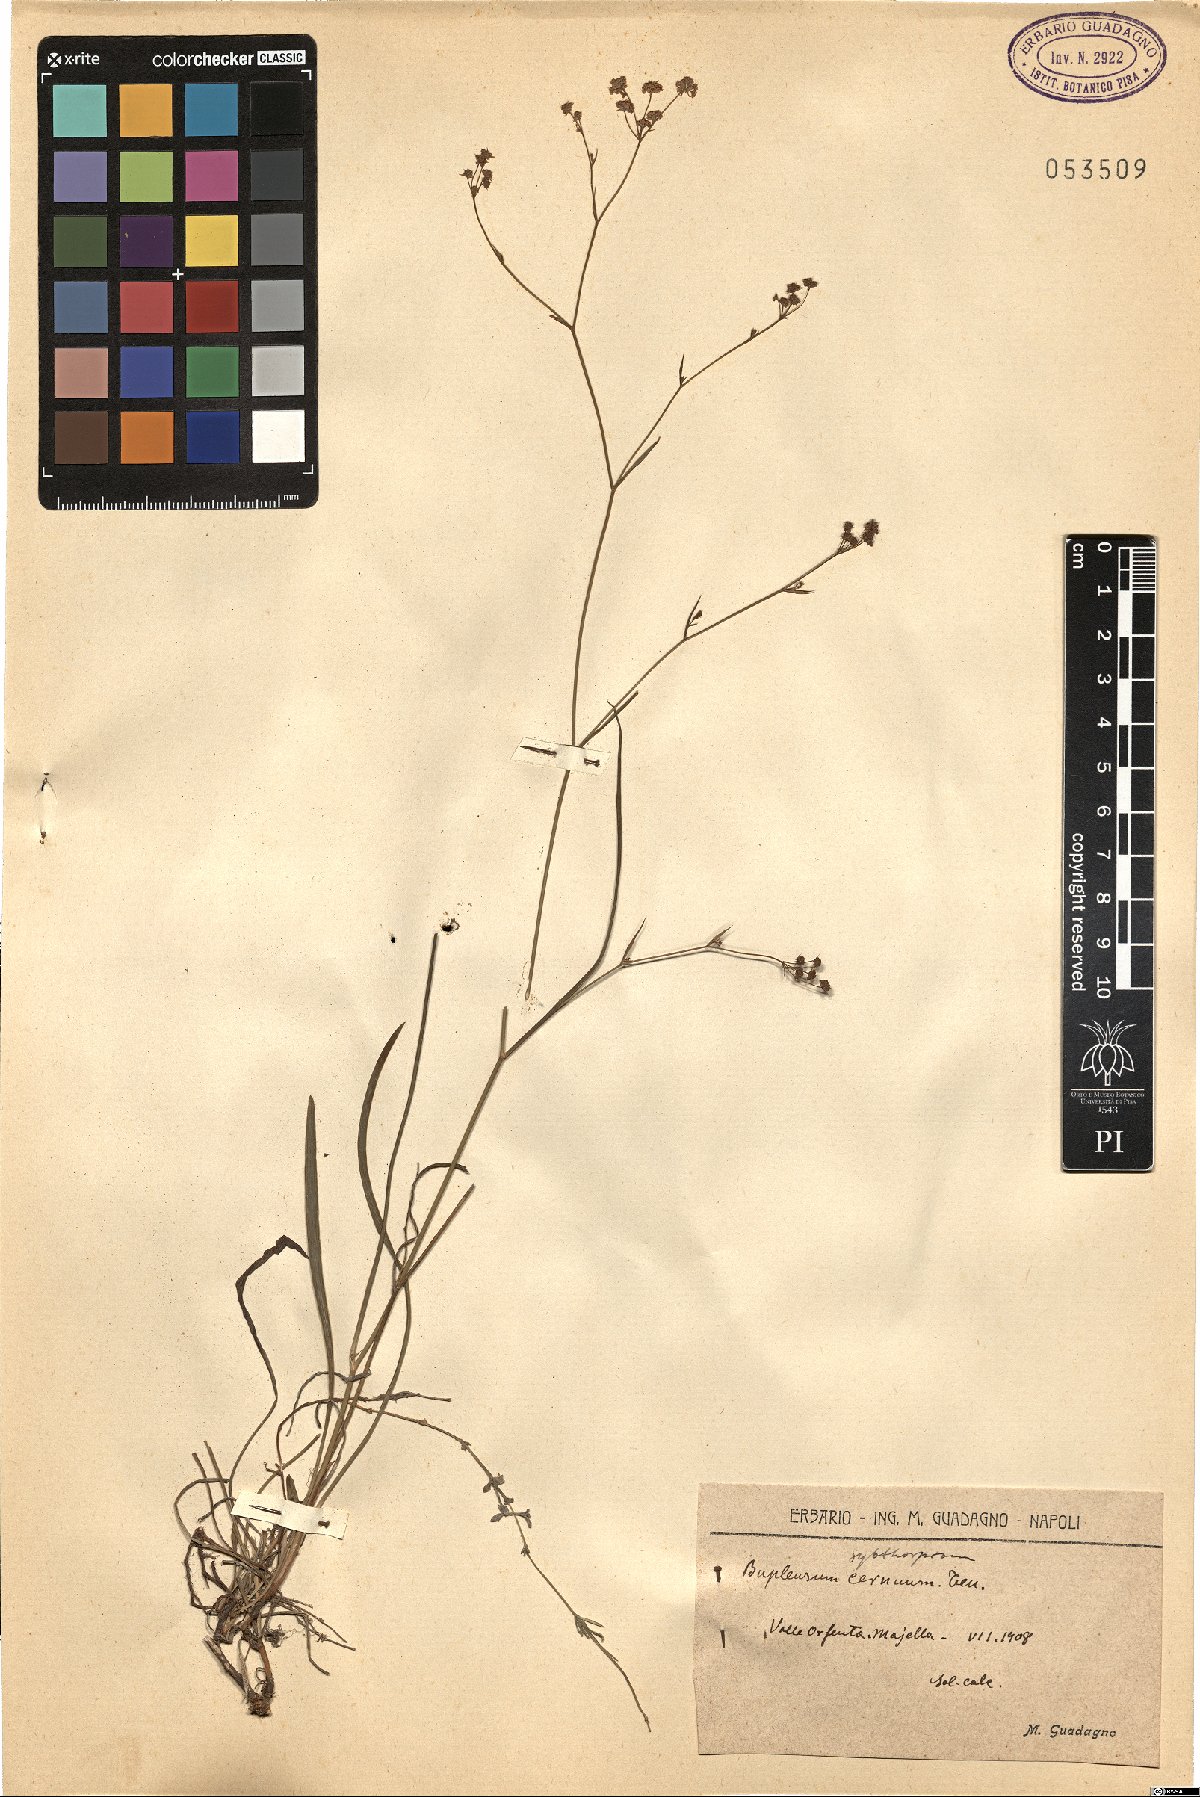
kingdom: Plantae
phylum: Tracheophyta
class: Magnoliopsida
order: Apiales
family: Apiaceae
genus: Bupleurum
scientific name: Bupleurum falcatum
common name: Sickle-leaved hare's-ear
